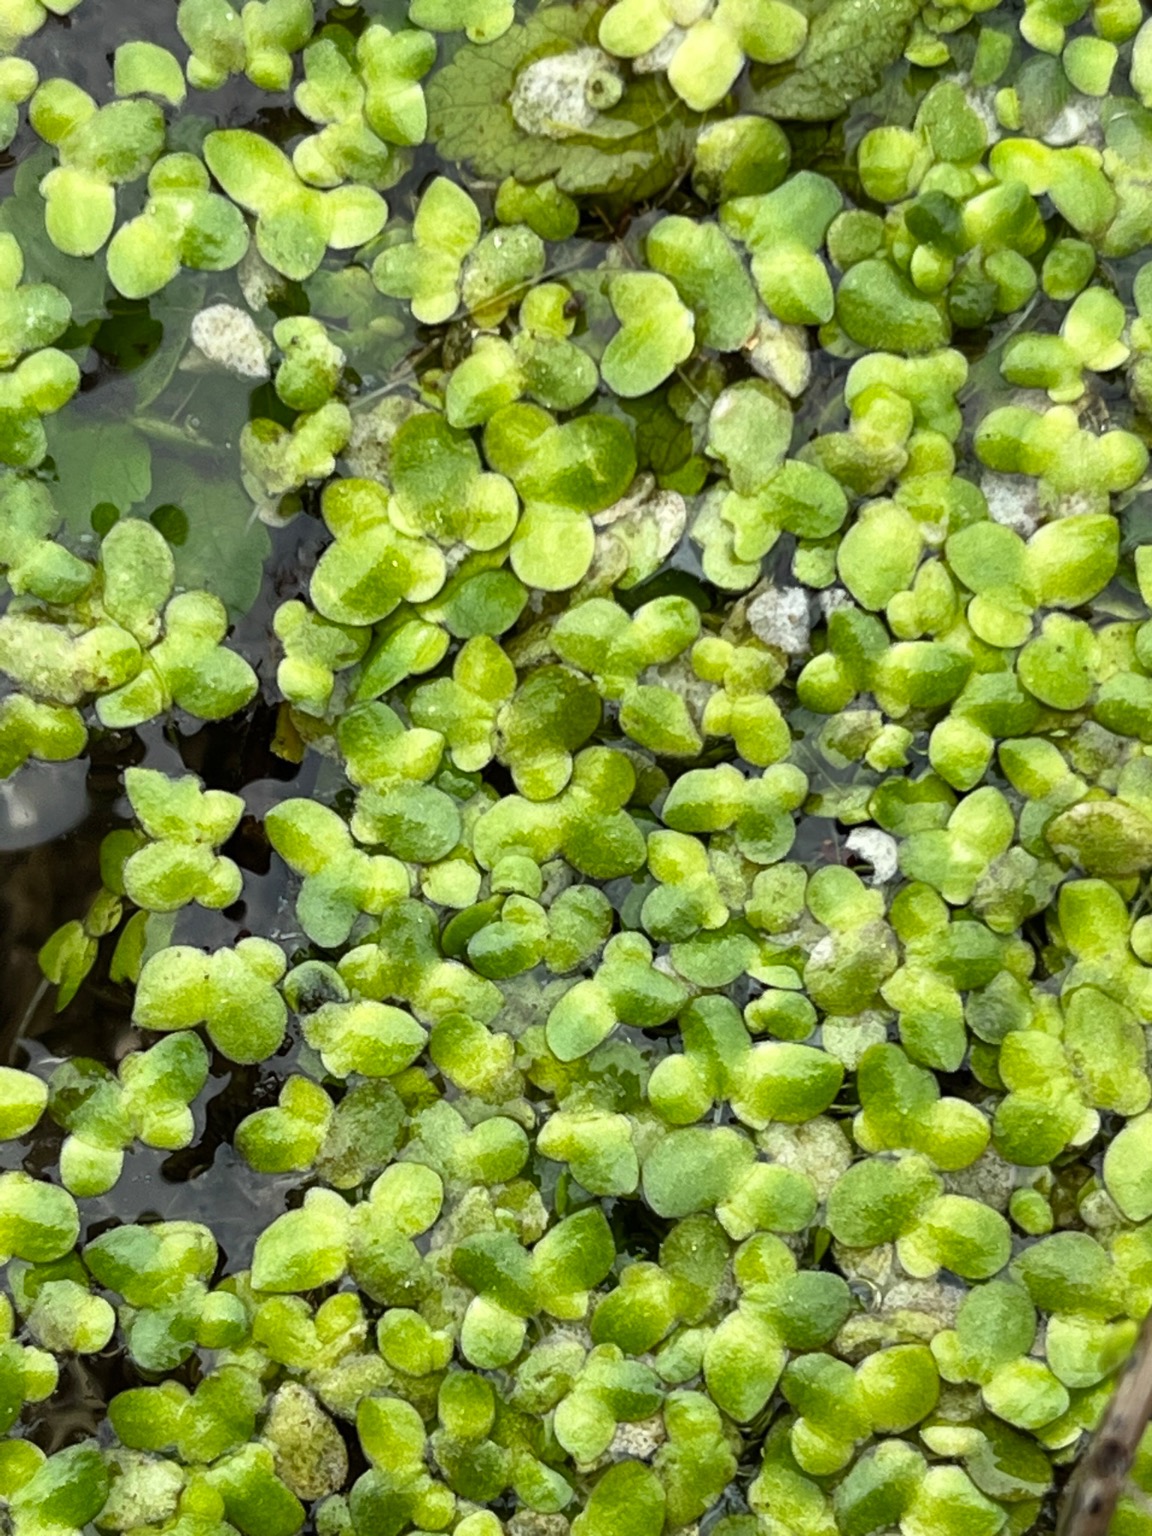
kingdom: Plantae
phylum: Tracheophyta
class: Liliopsida
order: Alismatales
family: Araceae
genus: Lemna
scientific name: Lemna minor
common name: Liden andemad
